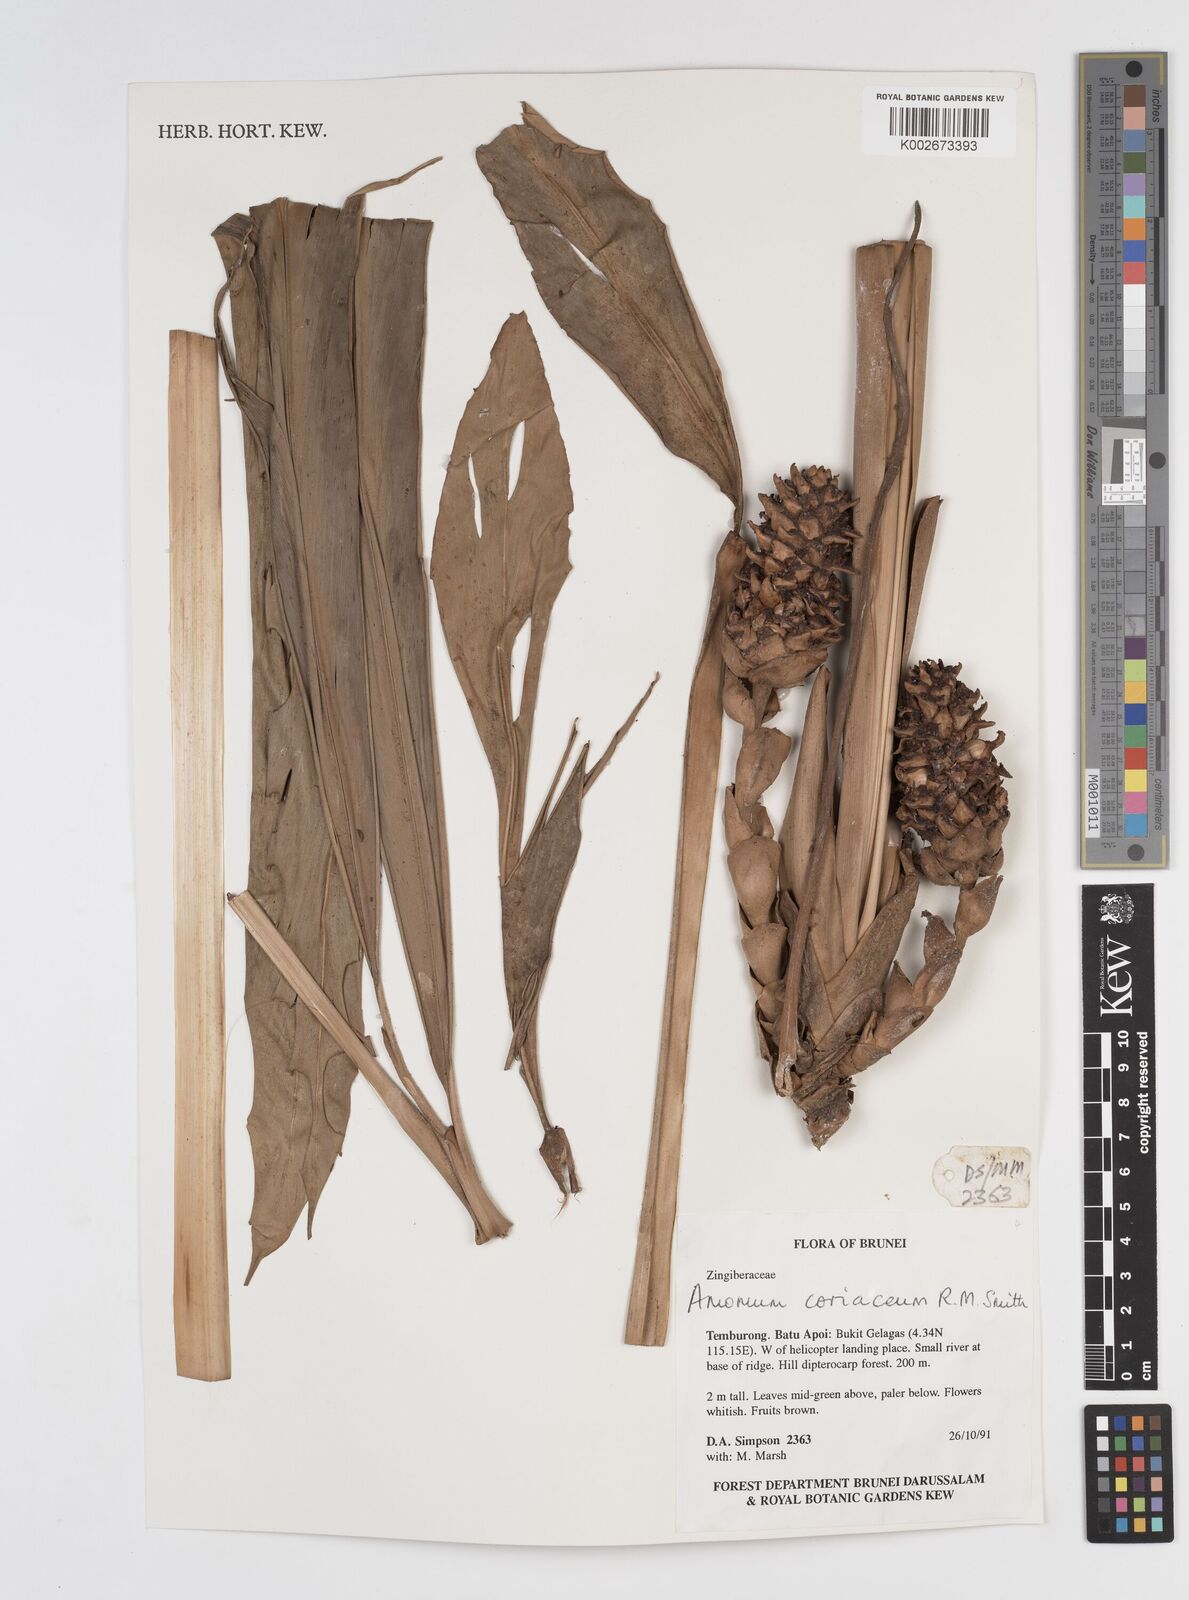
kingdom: Plantae
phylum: Tracheophyta
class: Liliopsida
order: Zingiberales
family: Zingiberaceae
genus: Conamomum
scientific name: Conamomum cylindrostachys
